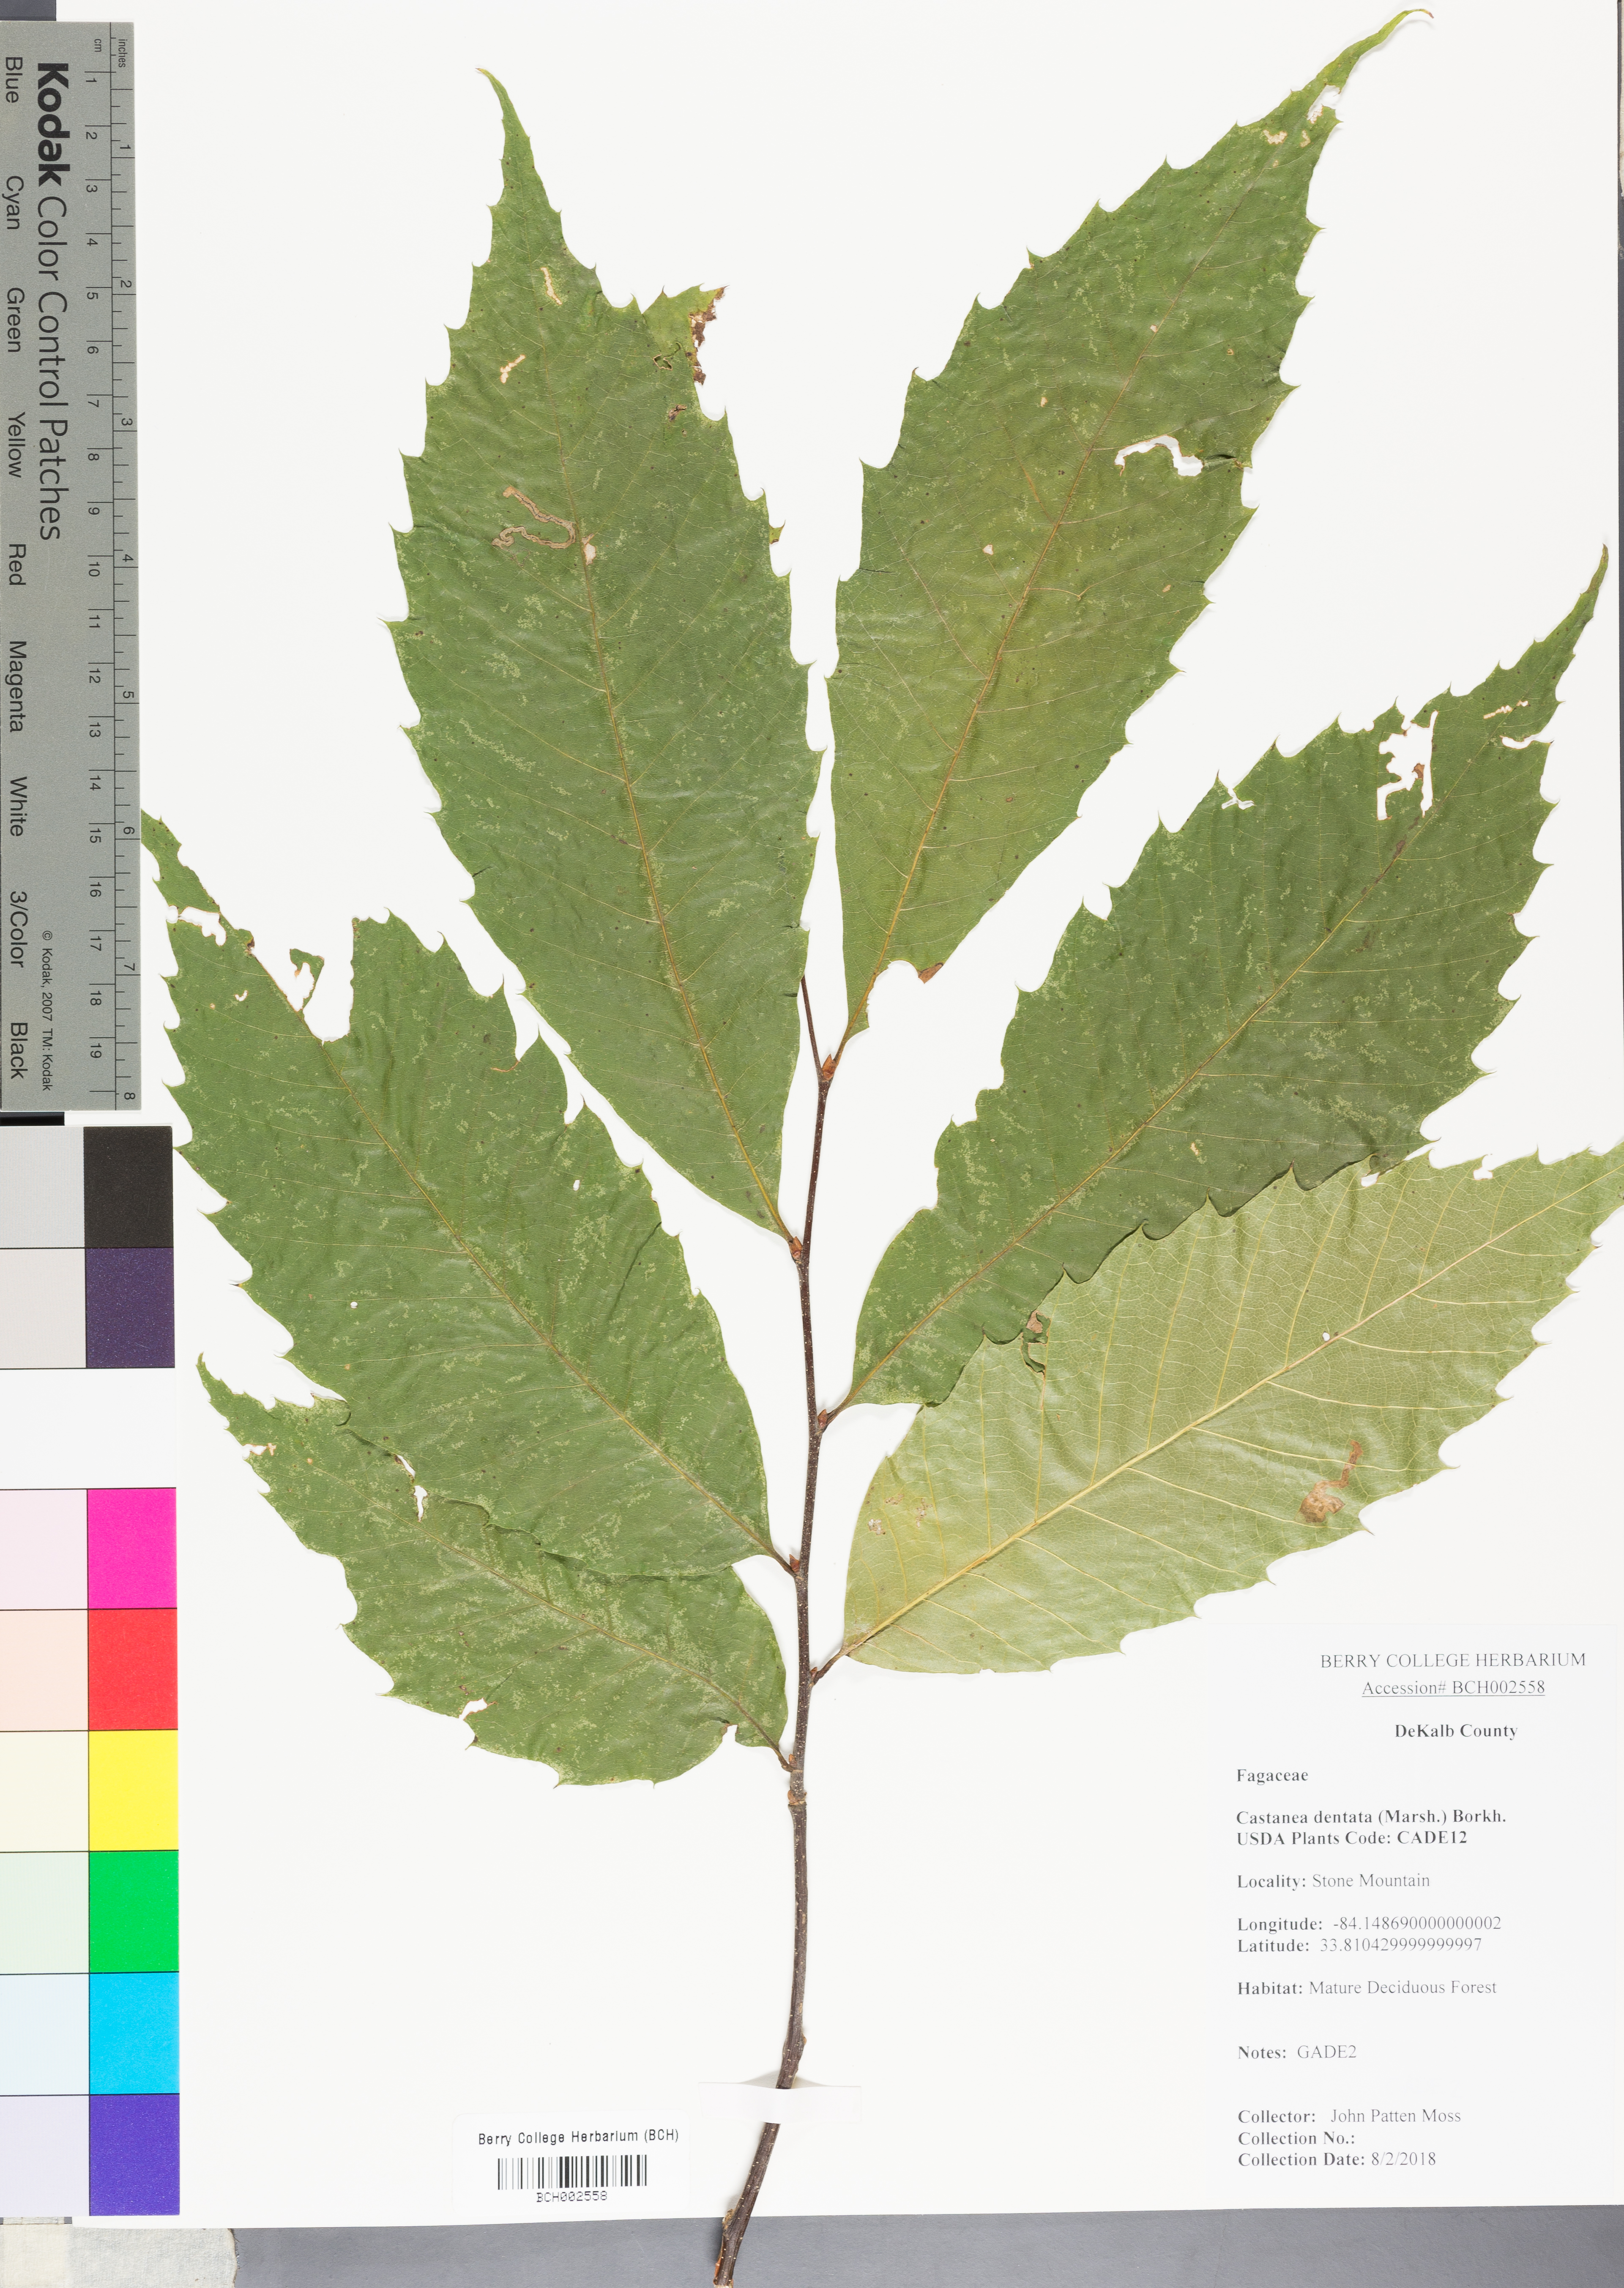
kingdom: Plantae
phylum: Tracheophyta
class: Magnoliopsida
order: Fagales
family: Fagaceae
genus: Castanea
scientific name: Castanea dentata
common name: American chestnut
